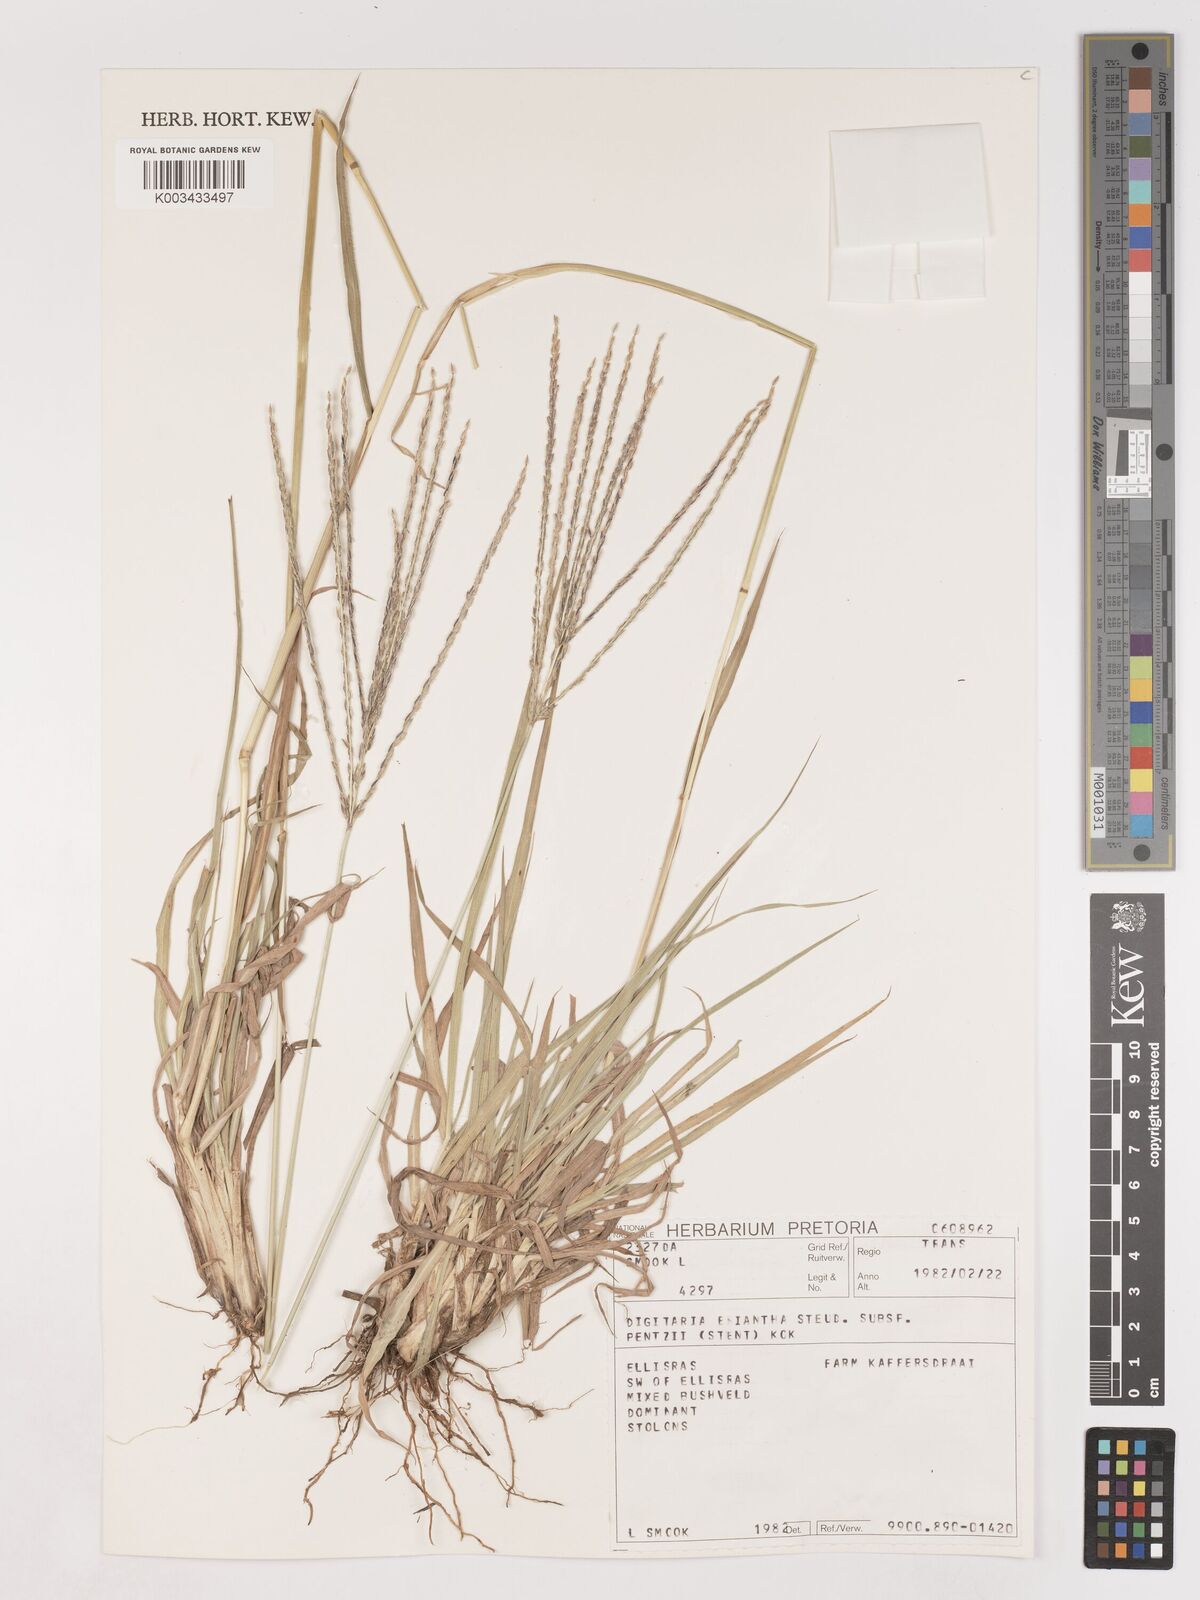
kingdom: Plantae
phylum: Tracheophyta
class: Liliopsida
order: Poales
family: Poaceae
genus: Digitaria
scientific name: Digitaria eriantha
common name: Digitgrass
